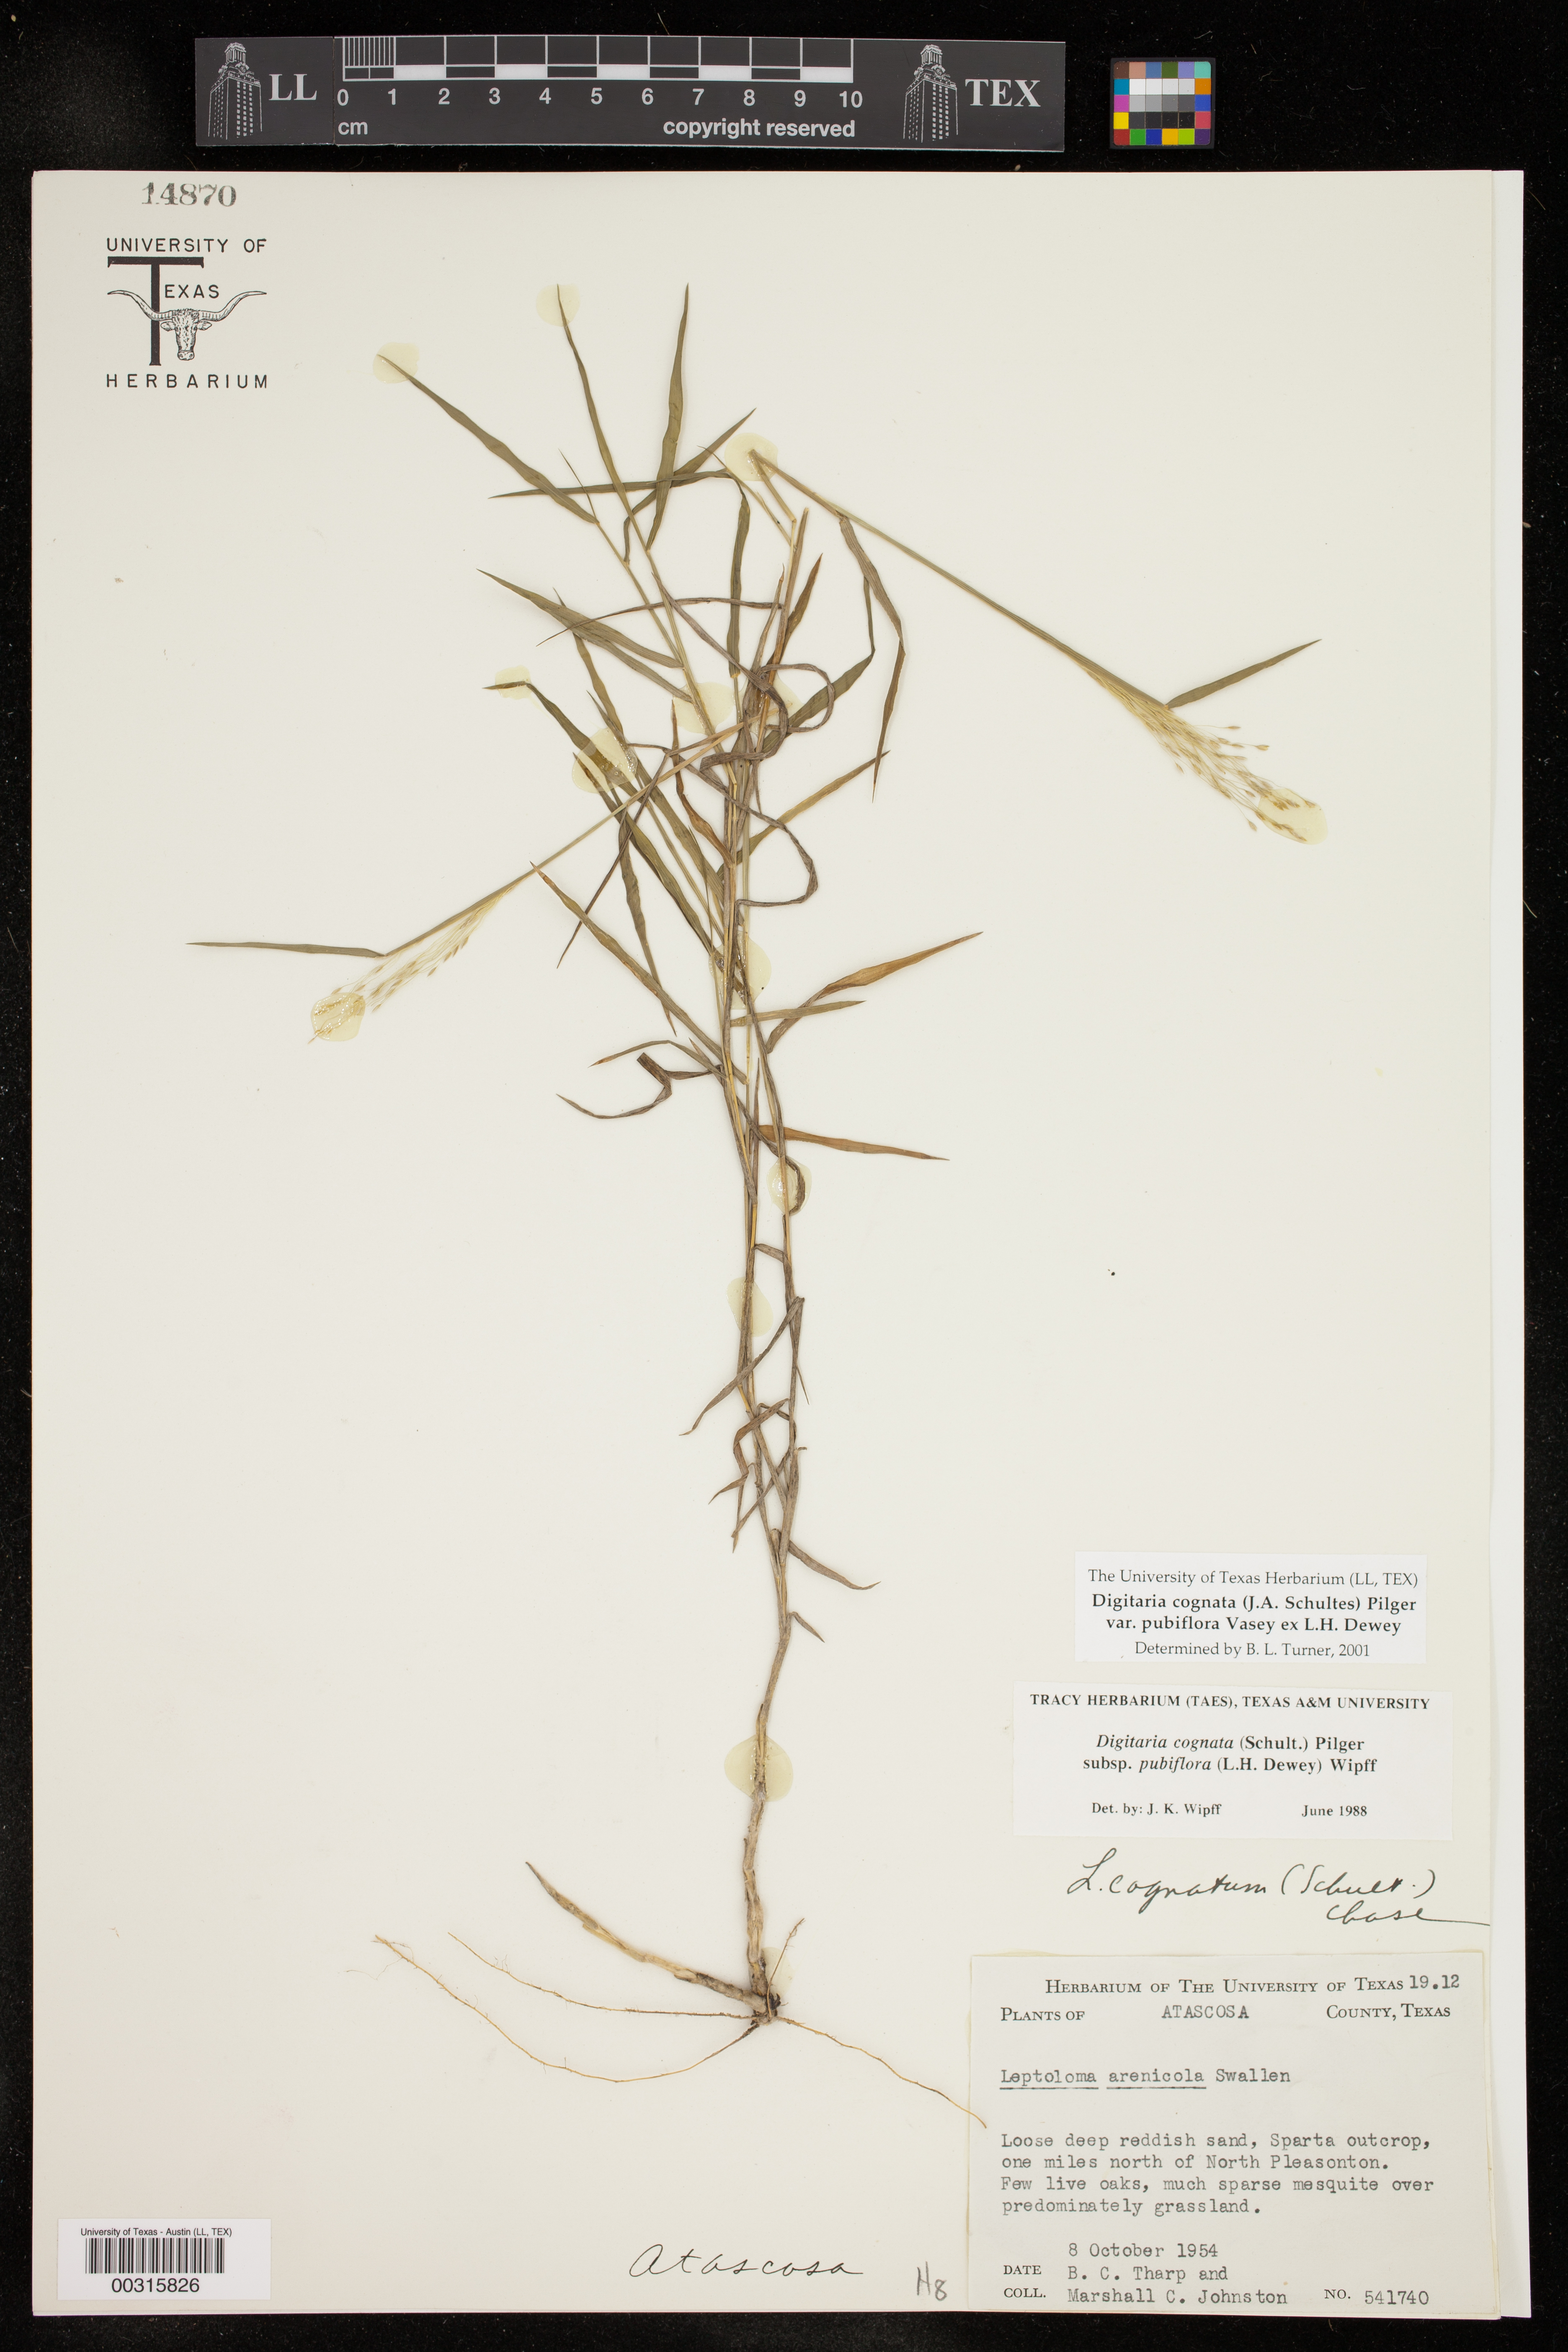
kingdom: Plantae
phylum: Tracheophyta
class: Liliopsida
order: Poales
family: Poaceae
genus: Digitaria
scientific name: Digitaria cognata
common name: Fall witchgrass
